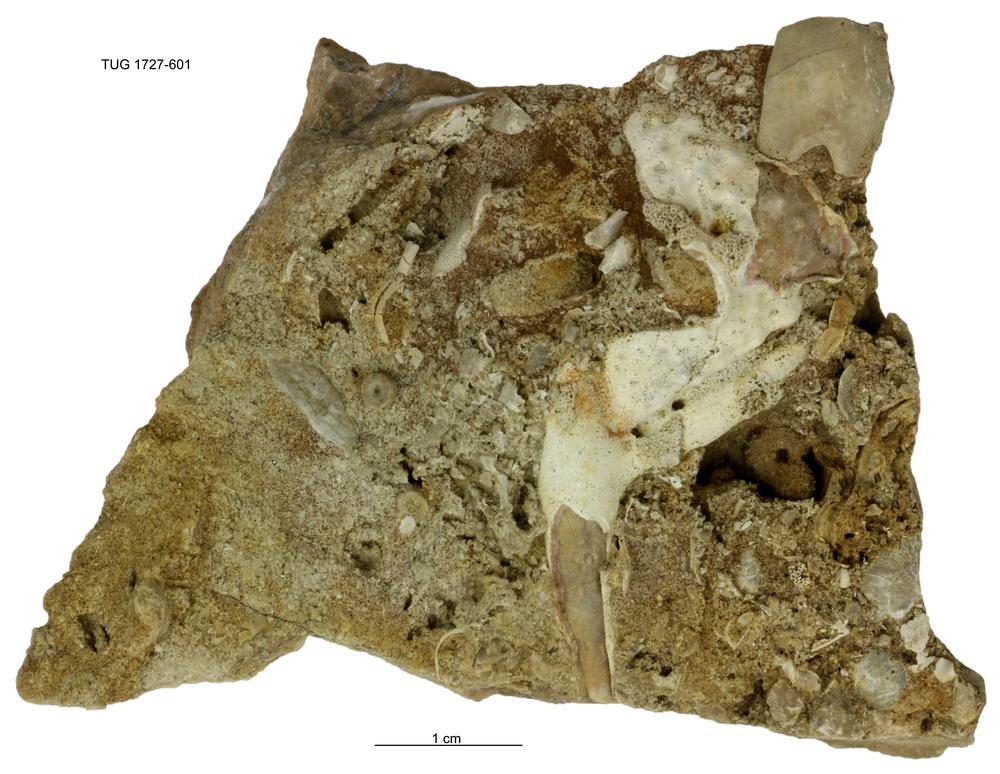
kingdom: Animalia
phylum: Echinodermata
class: Crinoidea
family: Hybocrinidae
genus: Hoplocrinus
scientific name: Hoplocrinus
